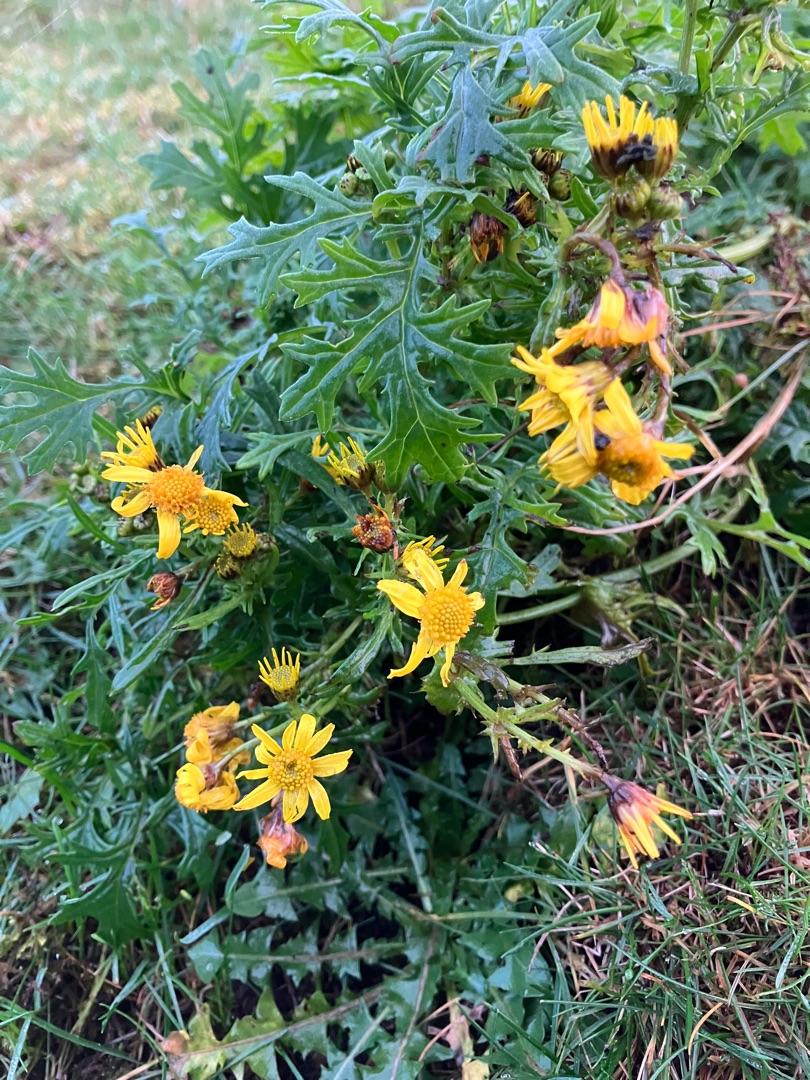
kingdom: Plantae
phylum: Tracheophyta
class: Magnoliopsida
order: Asterales
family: Asteraceae
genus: Jacobaea
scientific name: Jacobaea vulgaris
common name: Eng-brandbæger
